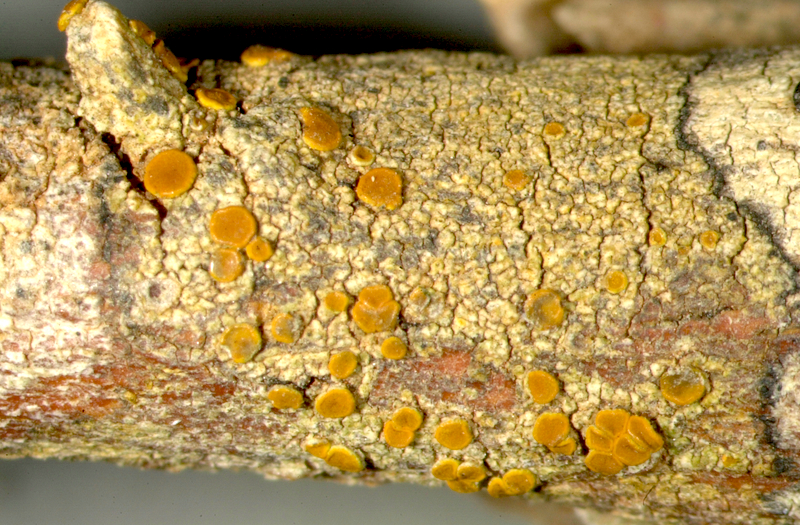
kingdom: Fungi
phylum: Ascomycota
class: Lecanoromycetes
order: Pertusariales
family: Pertusariaceae
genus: Pertusaria
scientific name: Pertusaria
